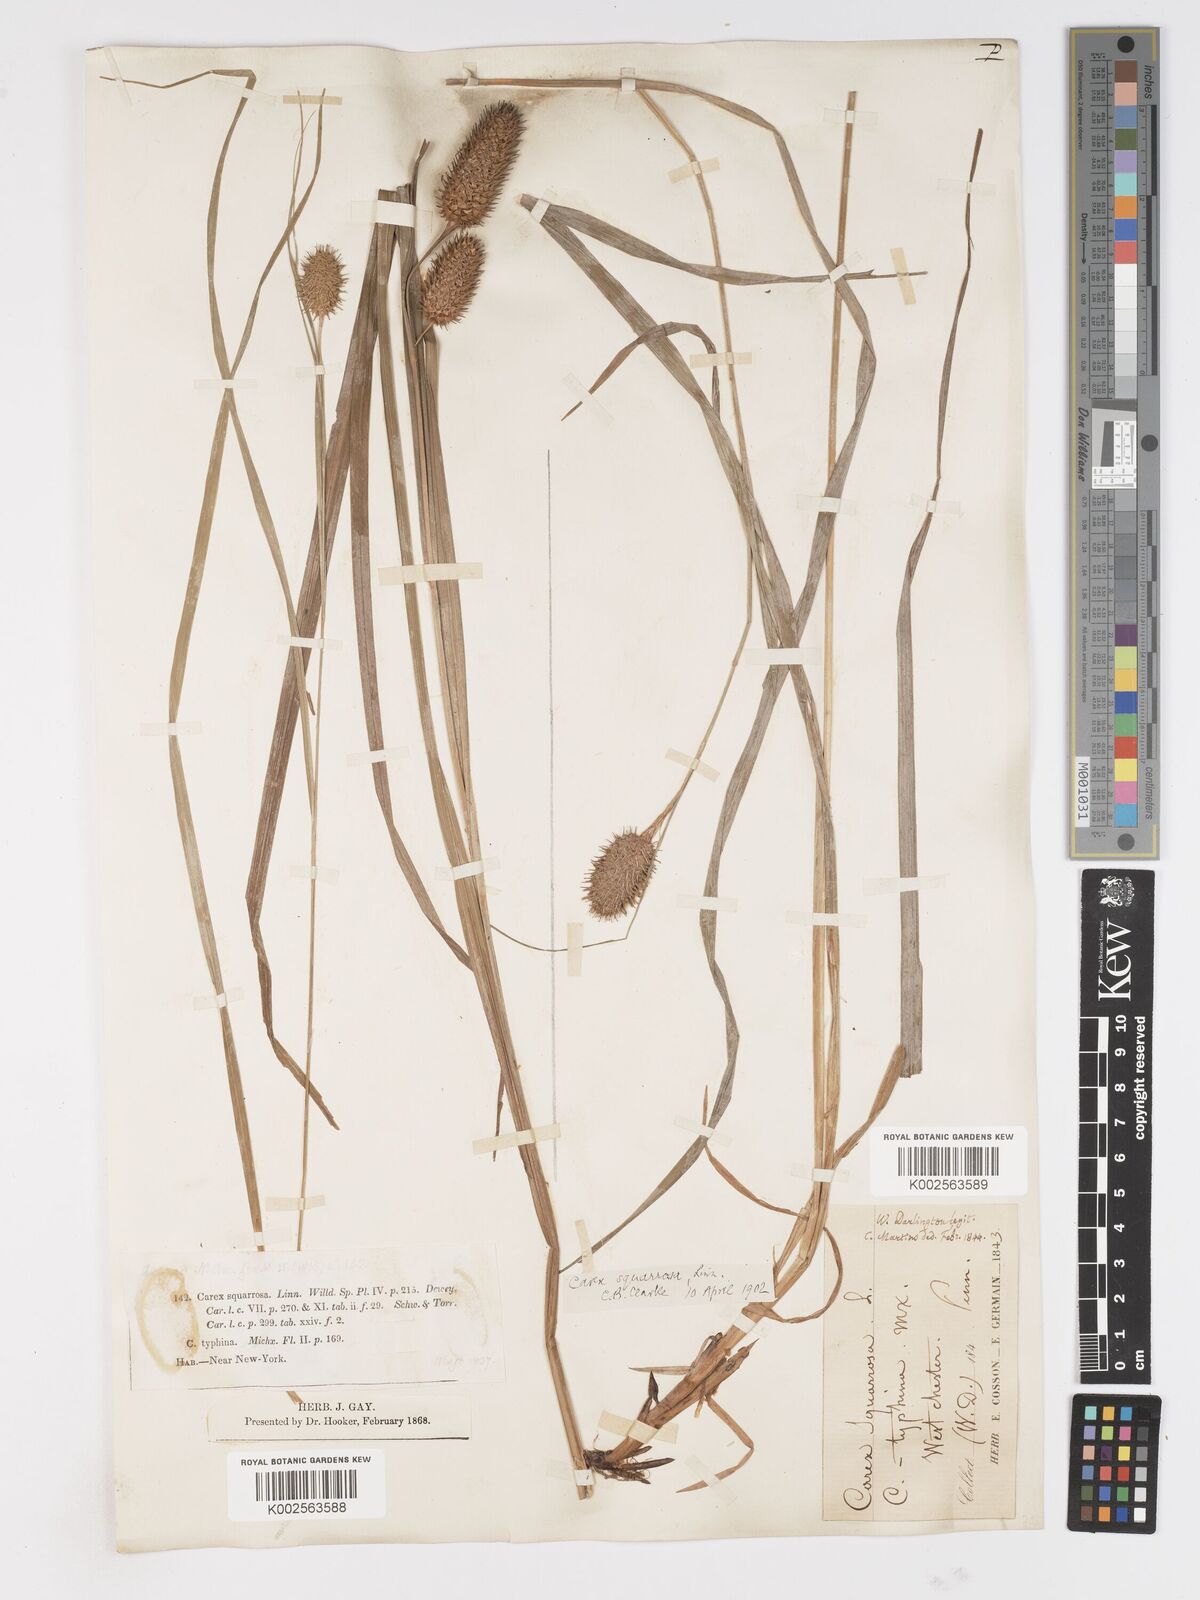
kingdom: Plantae
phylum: Tracheophyta
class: Liliopsida
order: Poales
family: Cyperaceae
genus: Carex
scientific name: Carex typhina
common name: Cattail sedge
